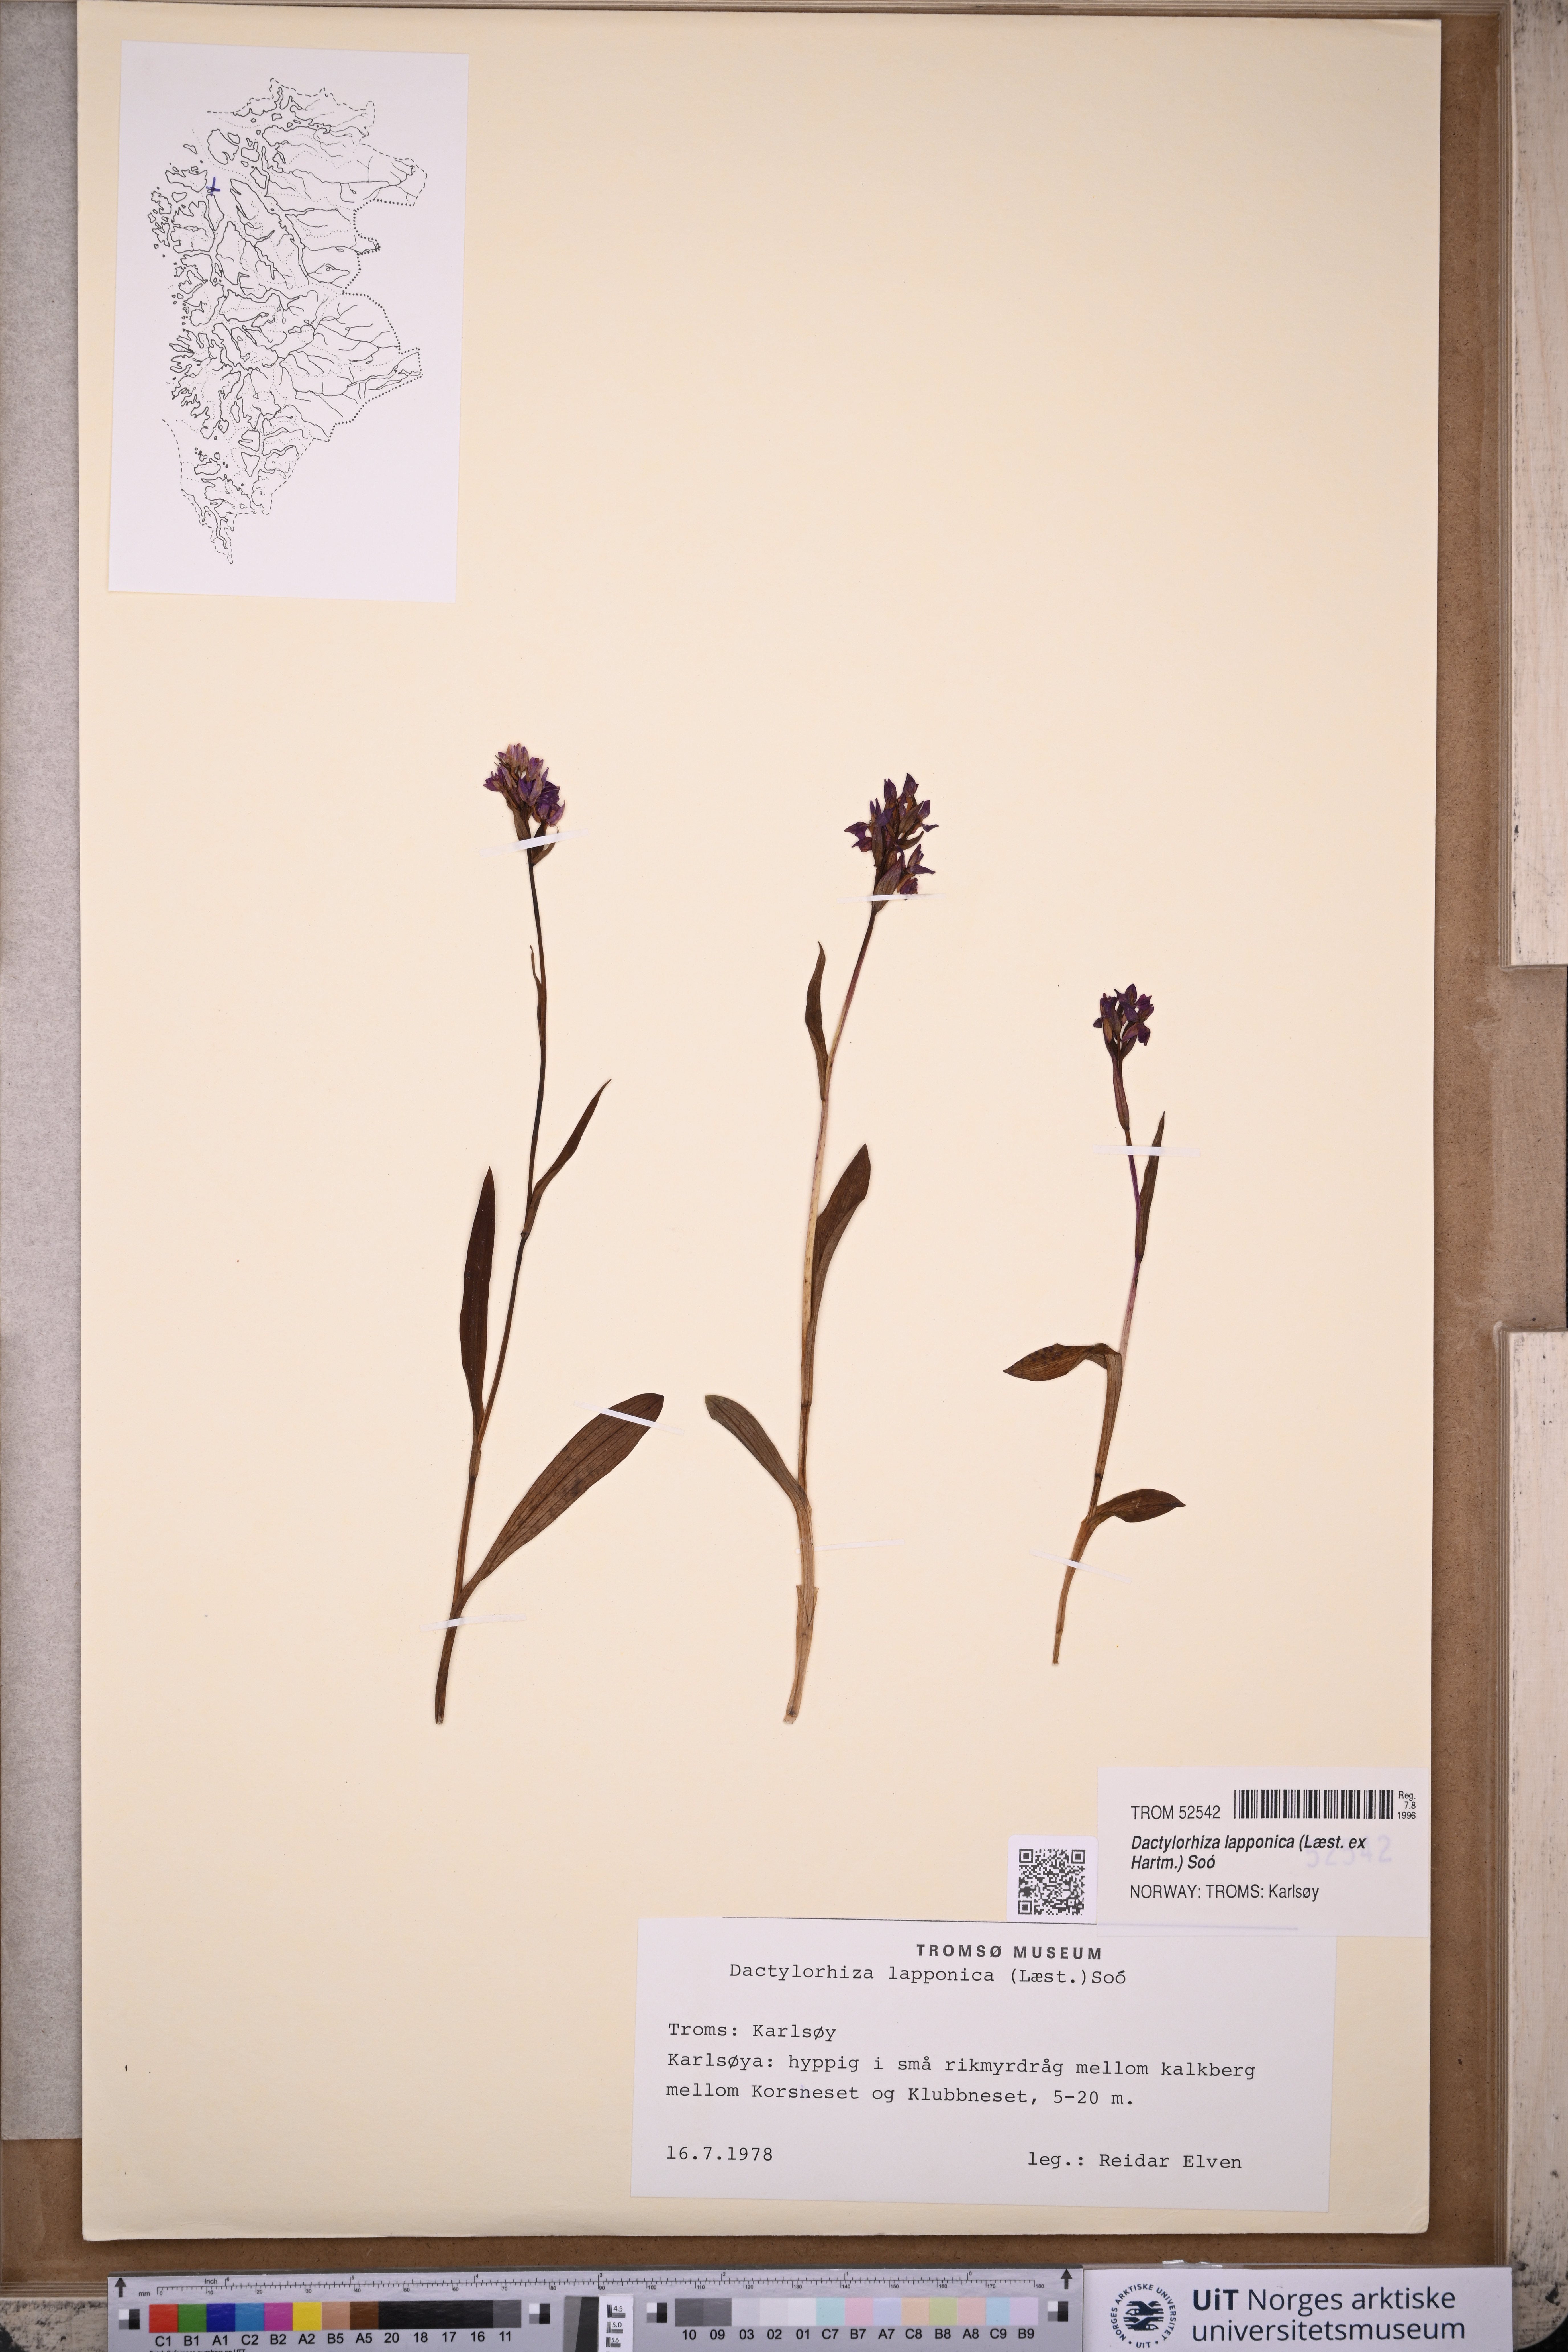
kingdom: Plantae
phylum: Tracheophyta
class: Liliopsida
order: Asparagales
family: Orchidaceae
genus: Dactylorhiza
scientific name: Dactylorhiza majalis
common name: Marsh orchid
